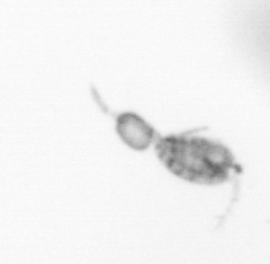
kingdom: Animalia
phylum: Arthropoda
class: Copepoda
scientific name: Copepoda
